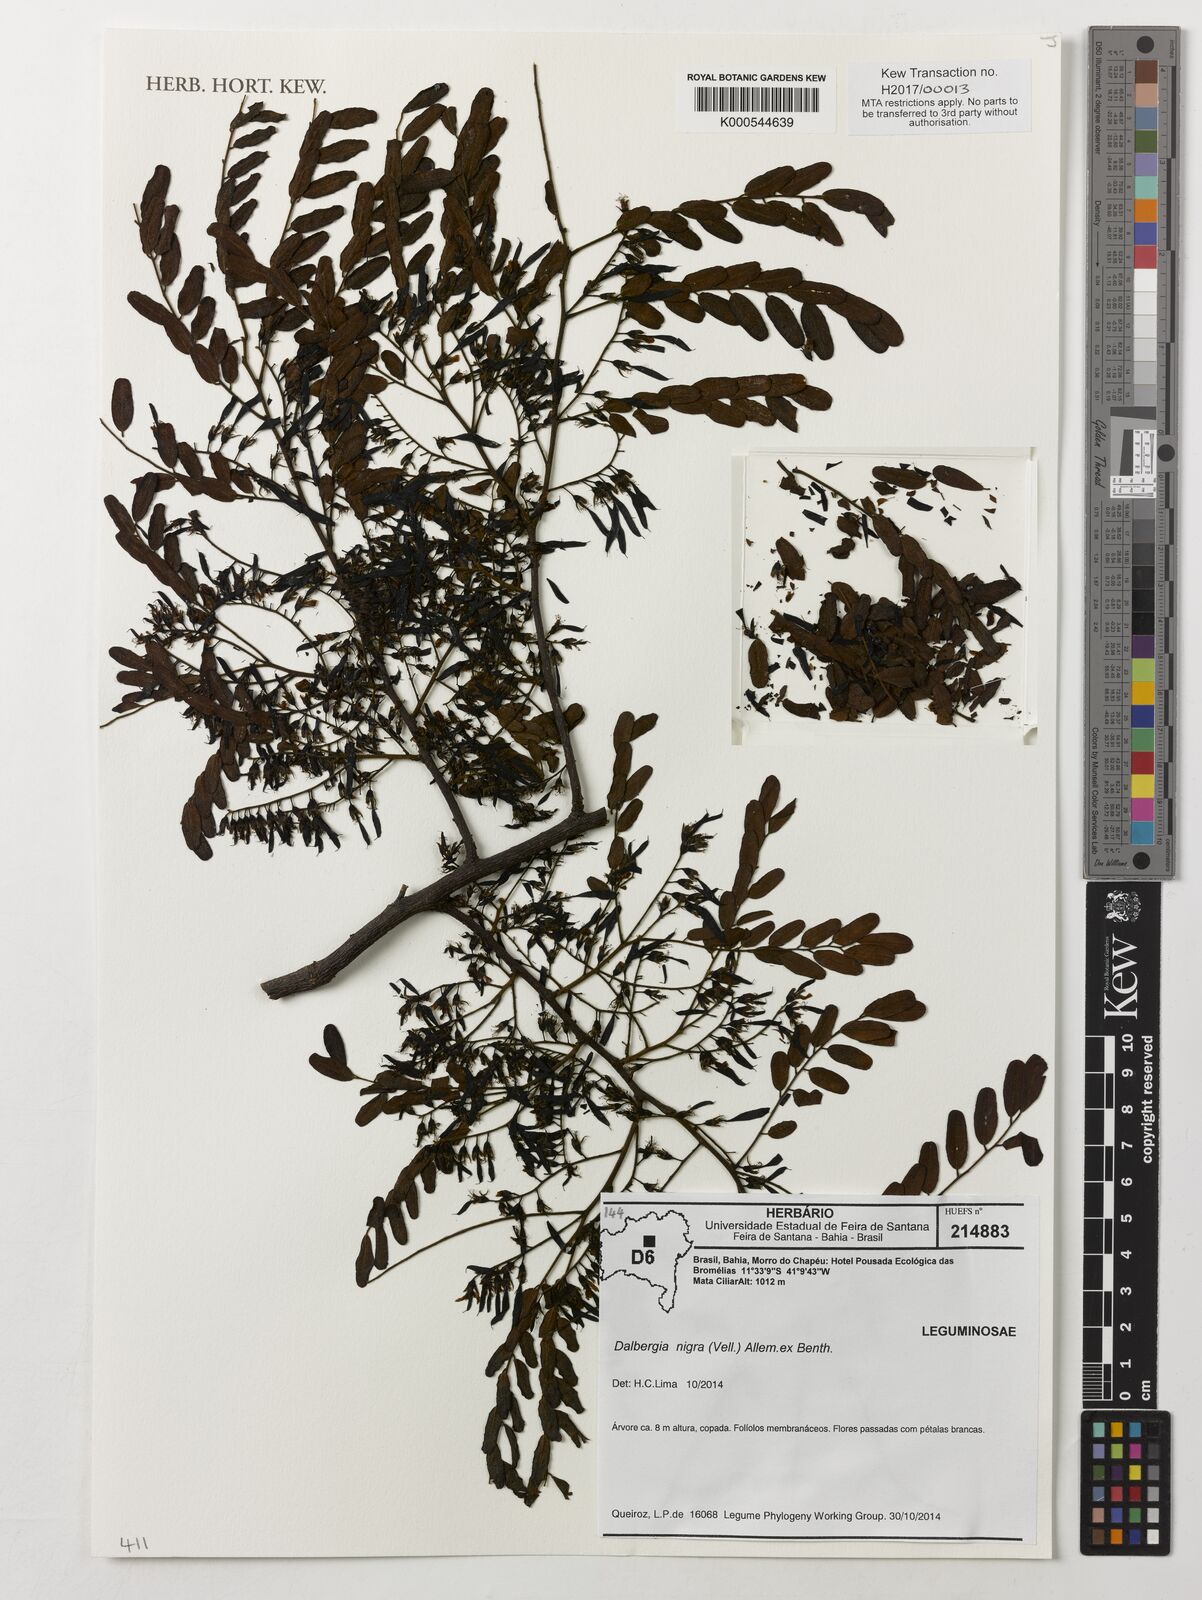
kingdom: Plantae
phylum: Tracheophyta
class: Magnoliopsida
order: Fabales
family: Fabaceae
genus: Dalbergia
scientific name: Dalbergia nigra
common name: Bahia rosewood
